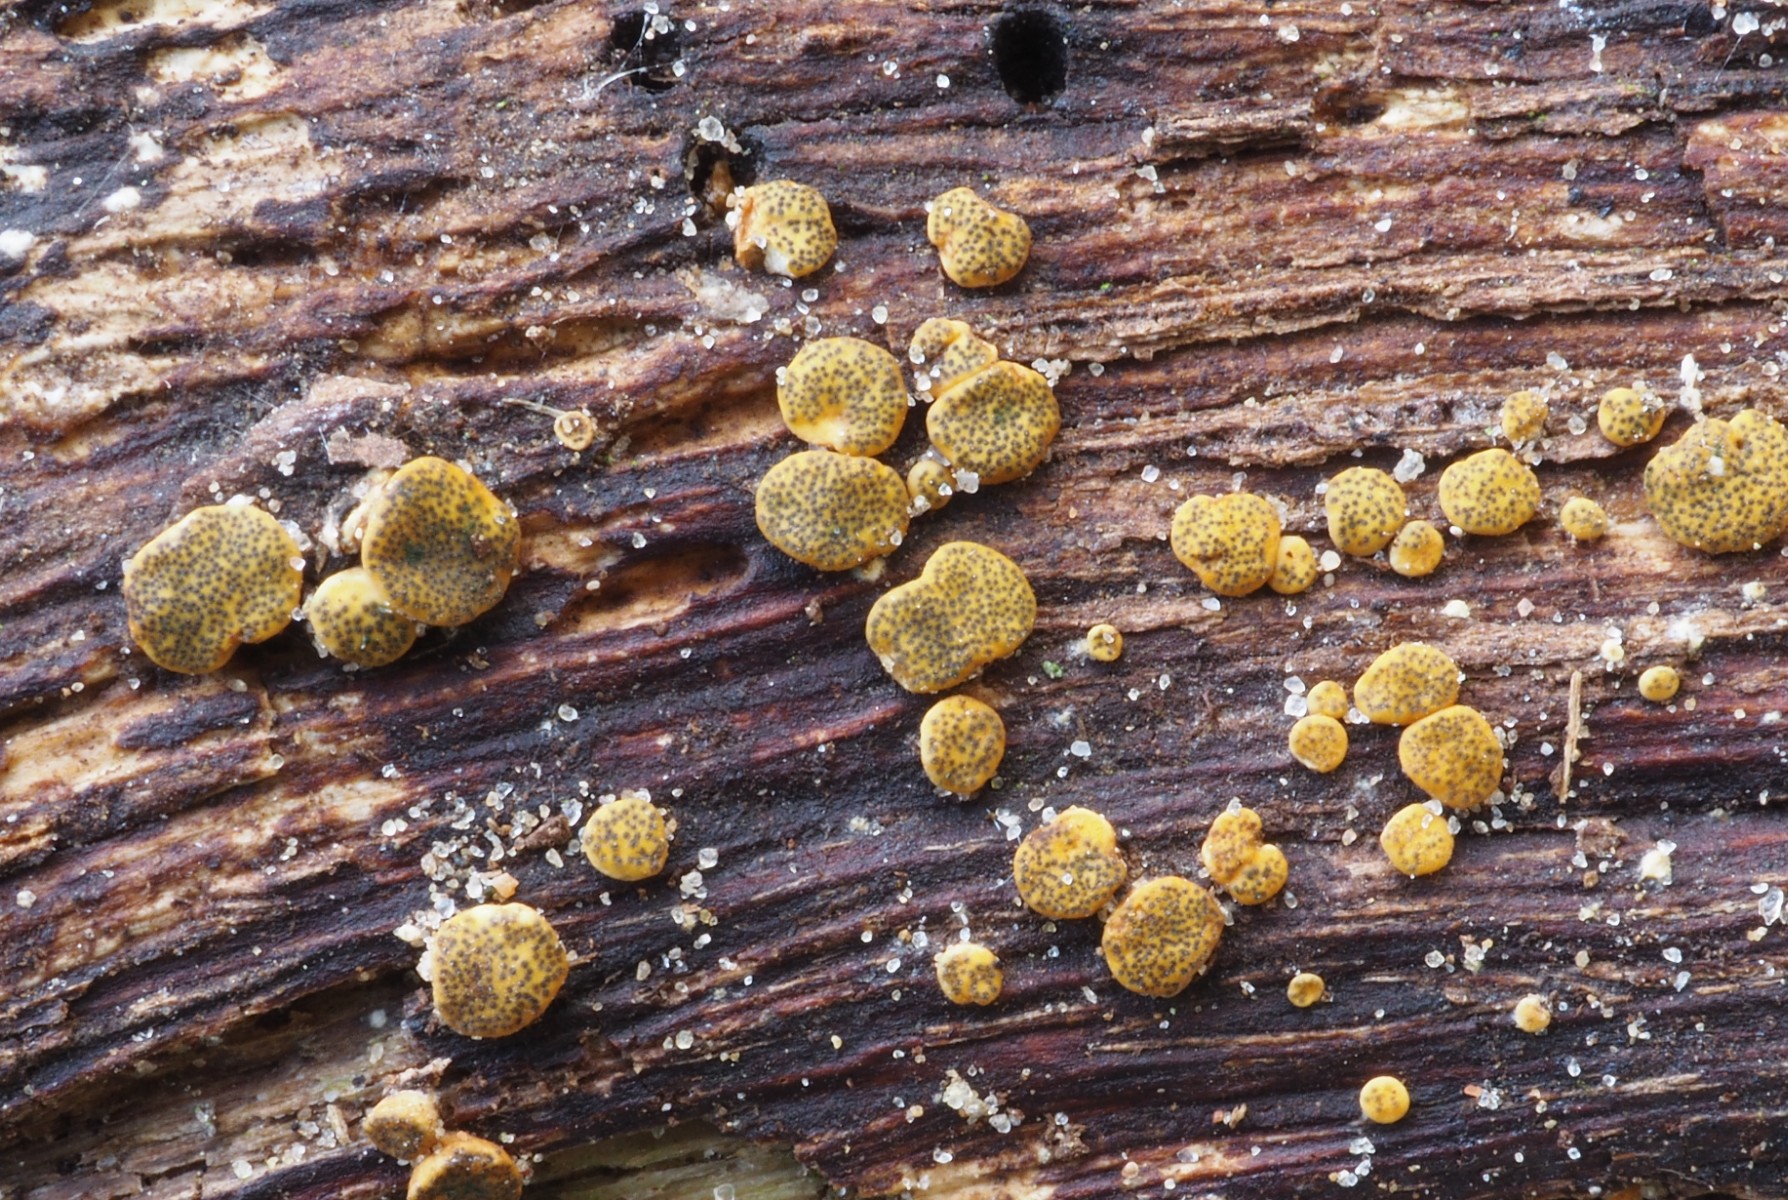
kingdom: Fungi
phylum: Ascomycota
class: Sordariomycetes
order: Hypocreales
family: Hypocreaceae
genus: Trichoderma
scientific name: Trichoderma aureoviride
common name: æggegul kødkerne
